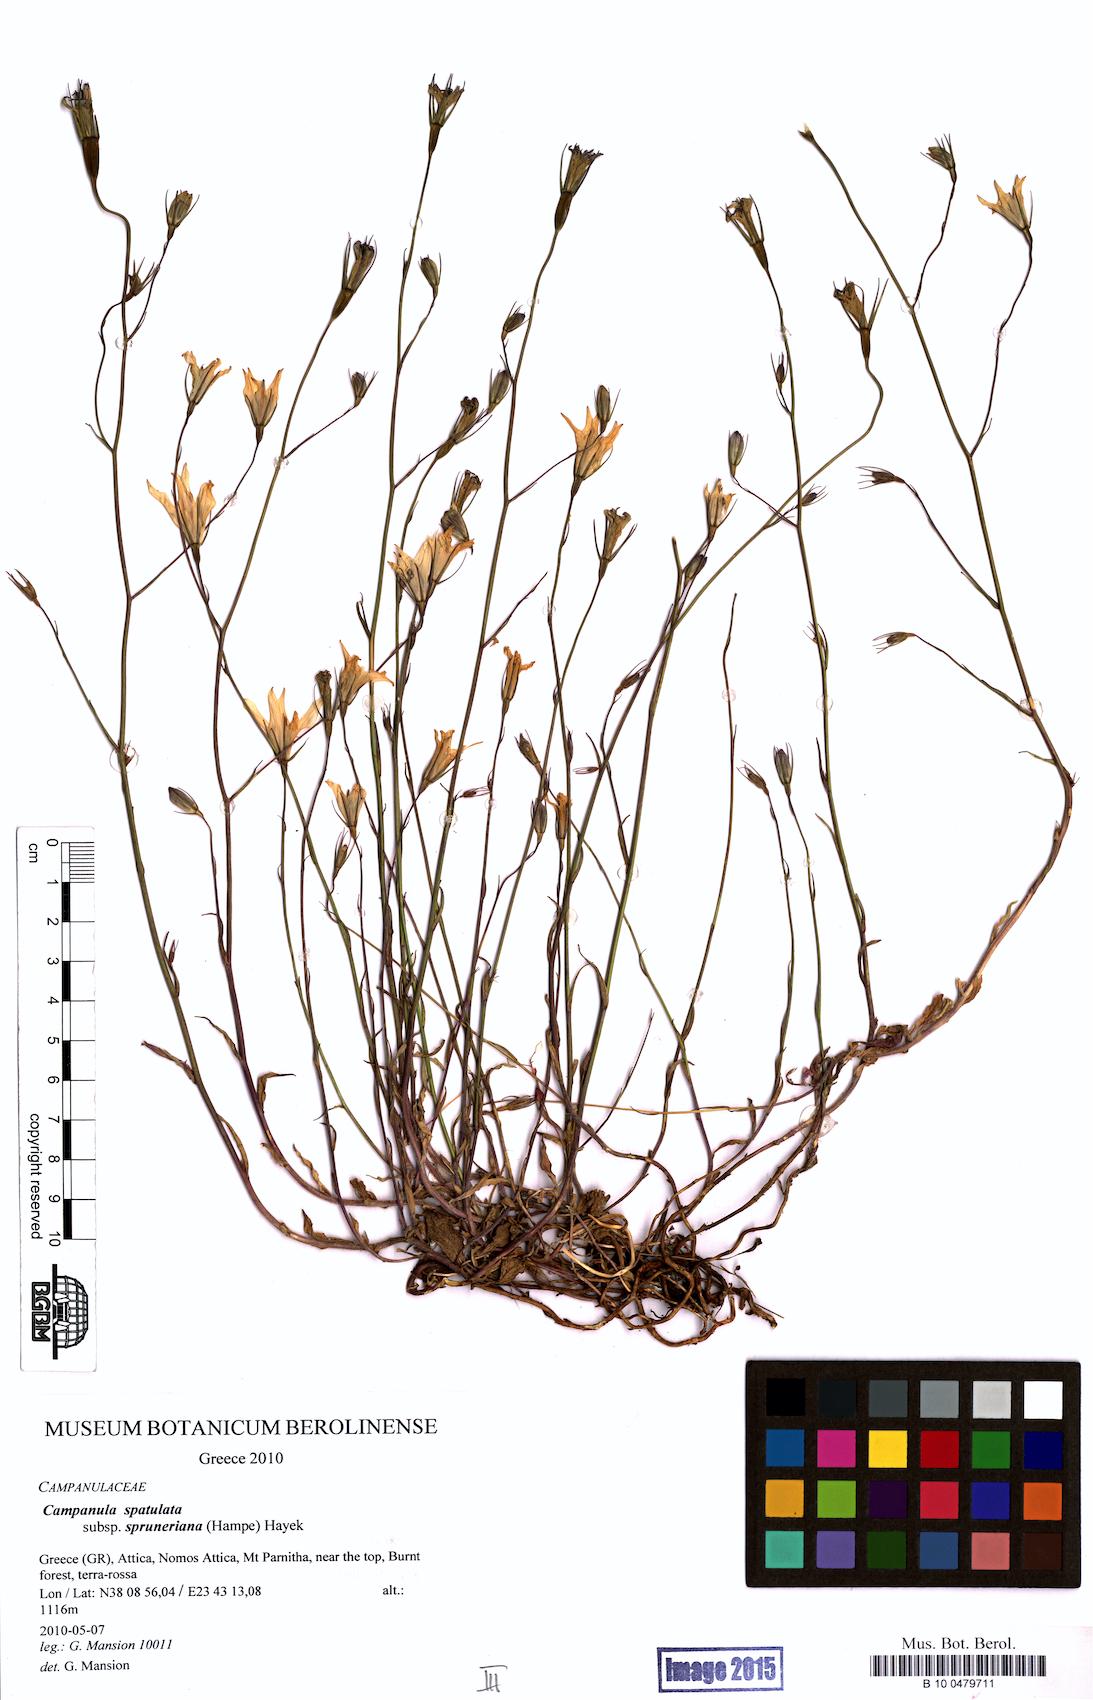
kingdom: Plantae
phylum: Tracheophyta
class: Magnoliopsida
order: Asterales
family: Campanulaceae
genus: Campanula
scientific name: Campanula spatulata
